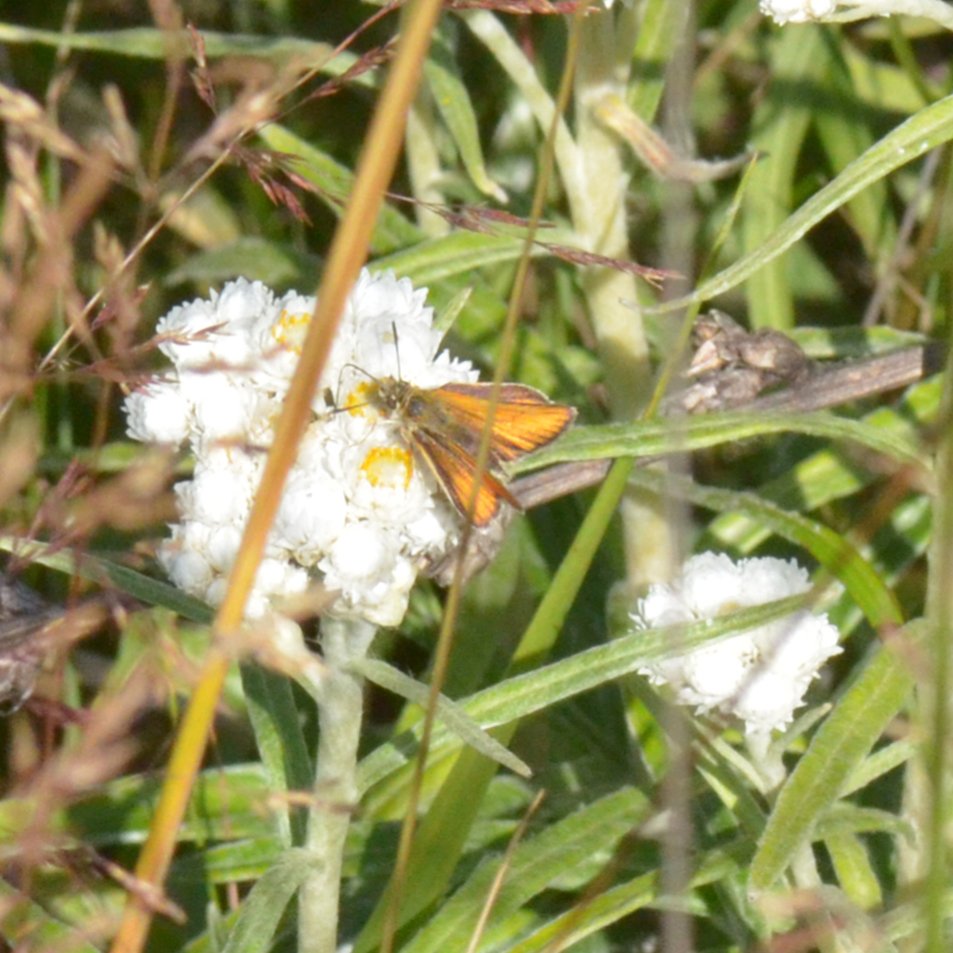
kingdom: Animalia
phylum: Arthropoda
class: Insecta
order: Lepidoptera
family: Hesperiidae
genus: Thymelicus
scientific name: Thymelicus lineola
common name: European Skipper
